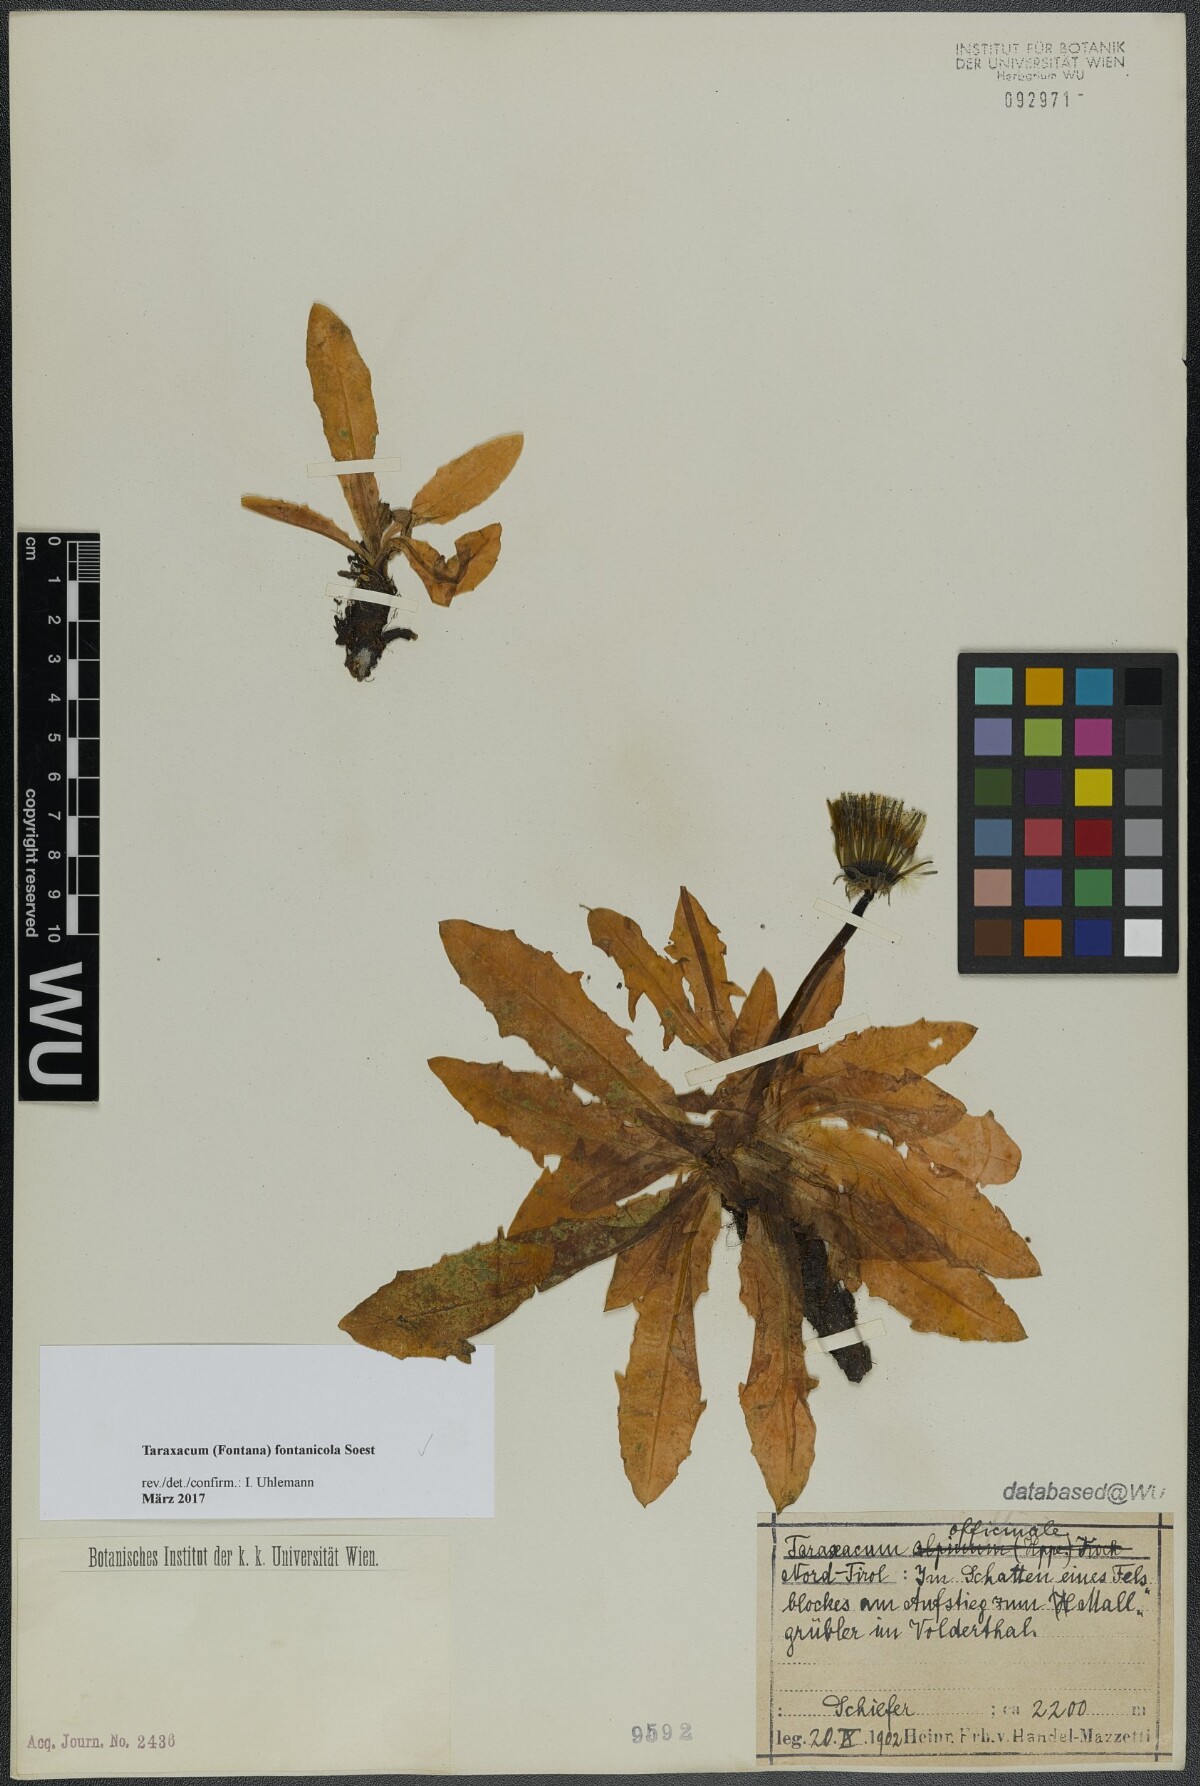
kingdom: Plantae
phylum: Tracheophyta
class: Magnoliopsida
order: Asterales
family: Asteraceae
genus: Taraxacum
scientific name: Taraxacum fontanicola
